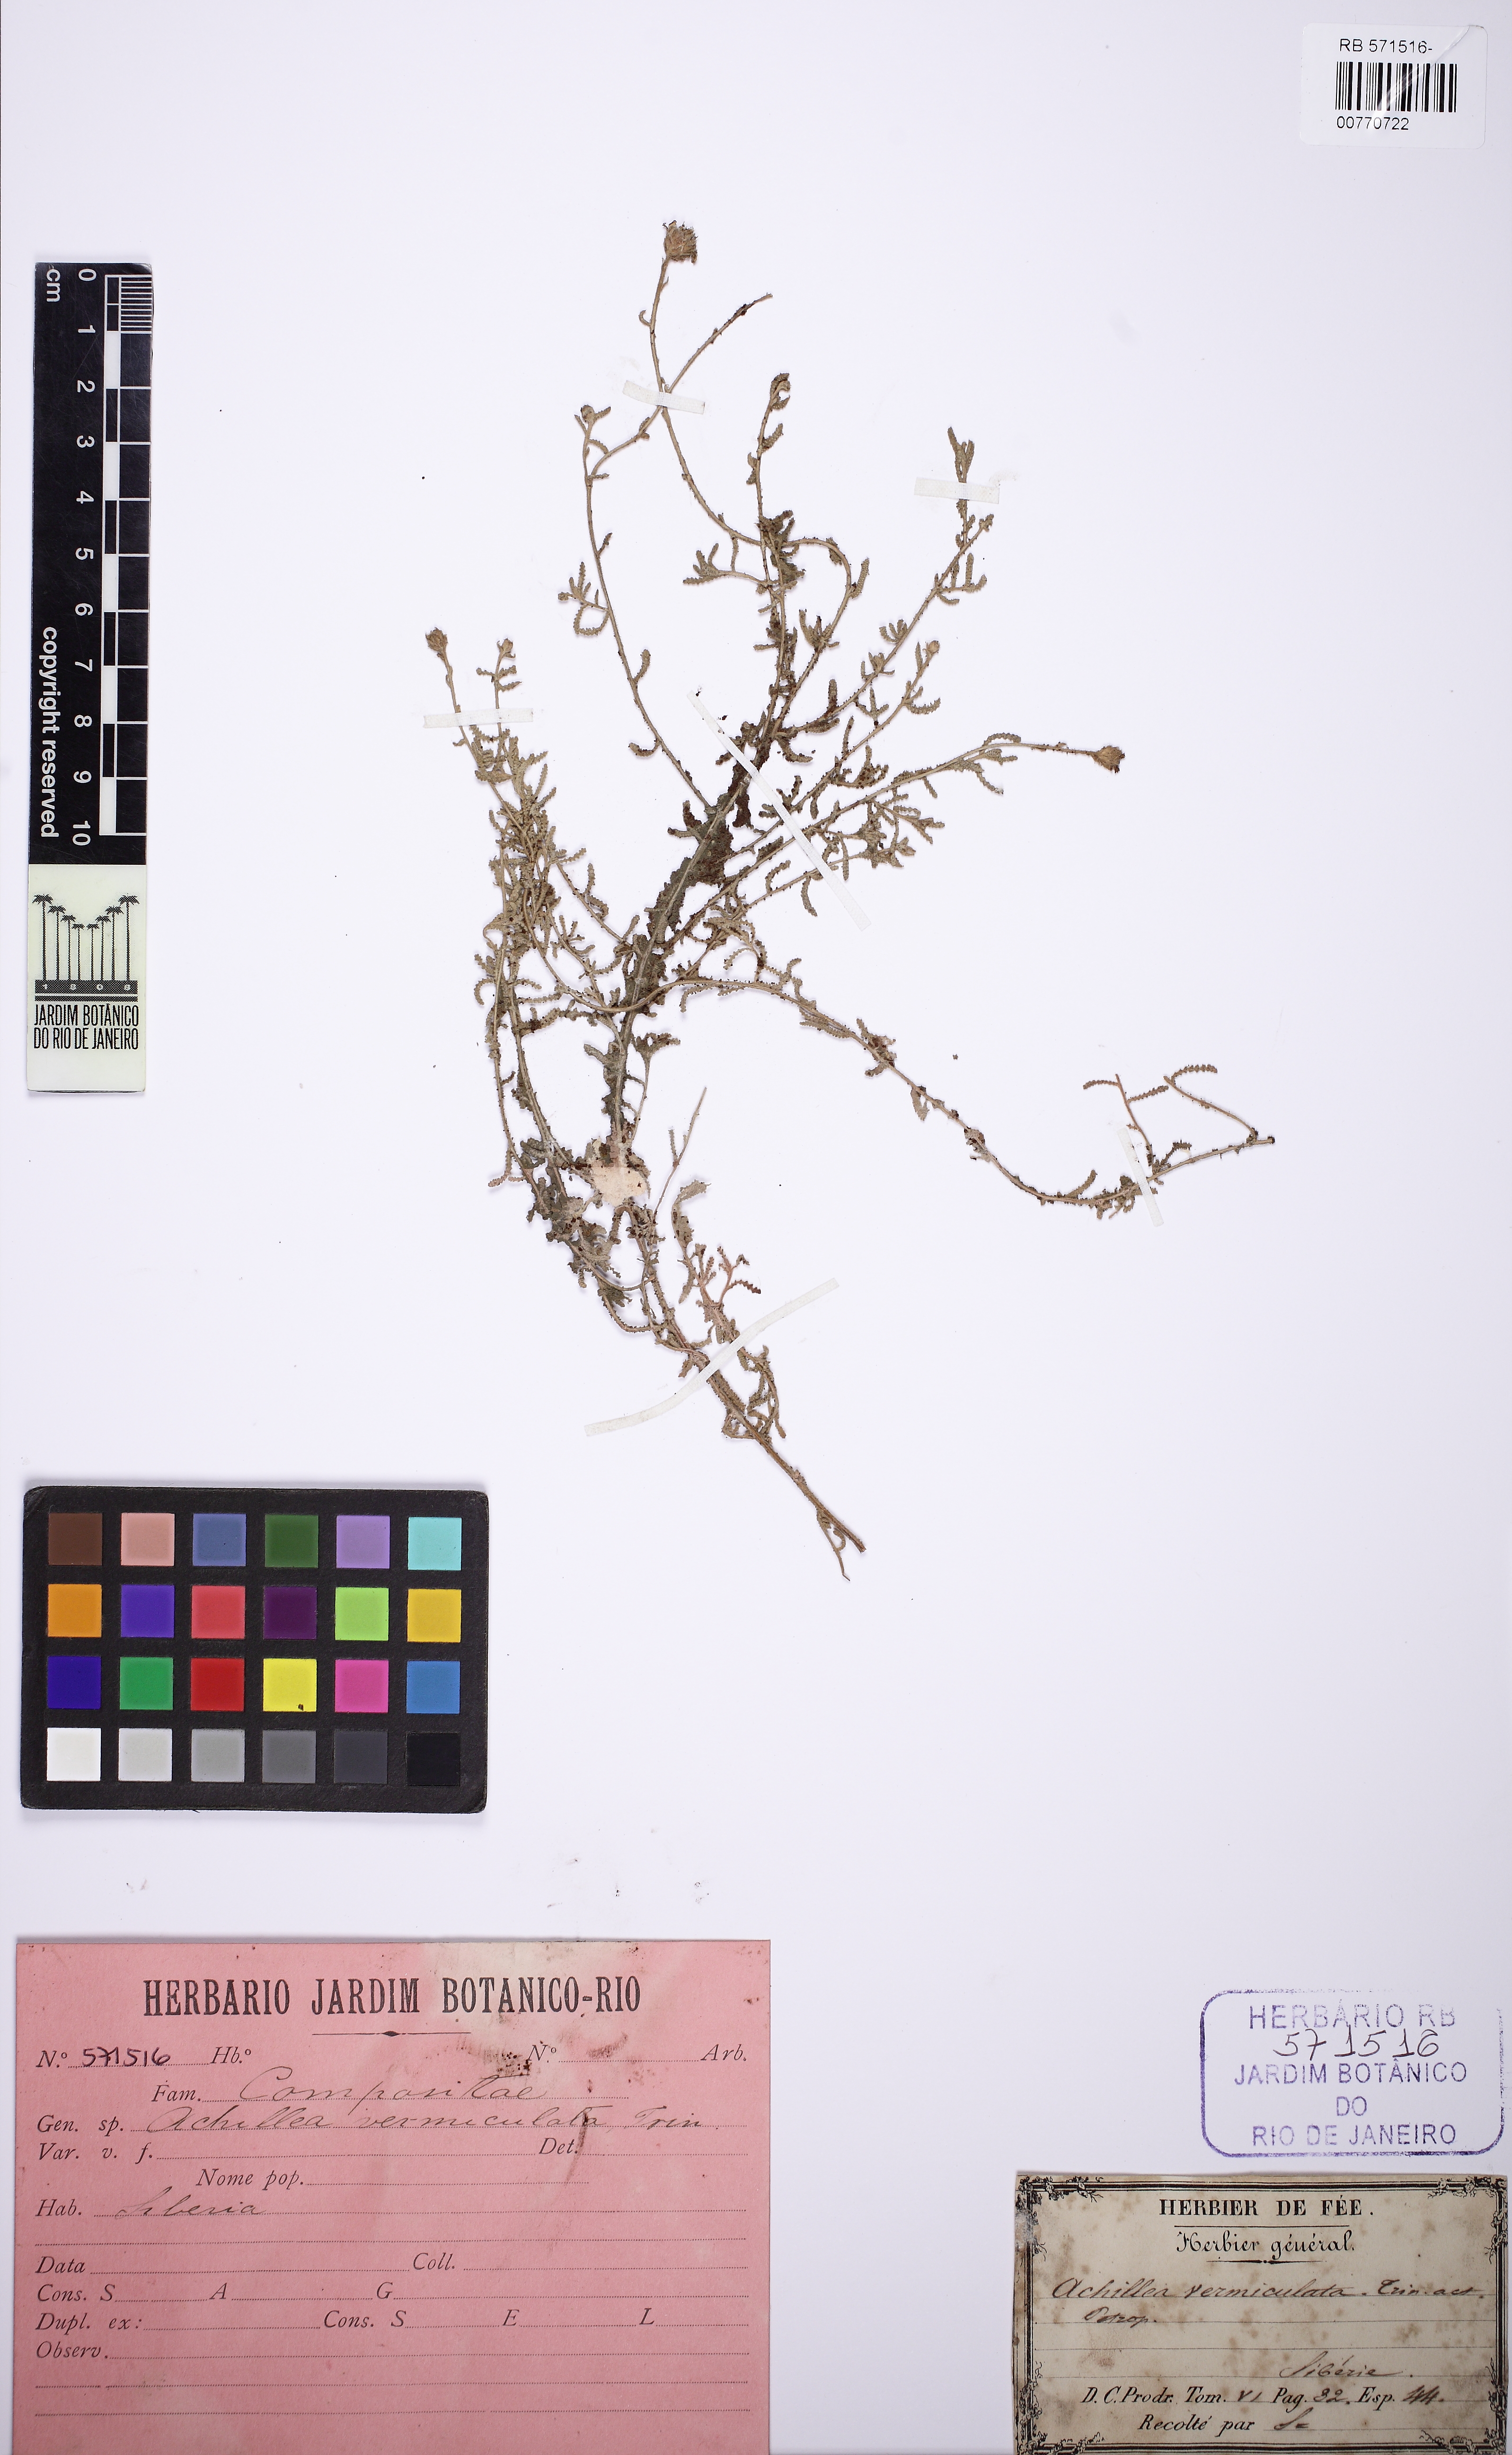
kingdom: Plantae
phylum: Tracheophyta
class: Magnoliopsida
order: Asterales
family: Asteraceae
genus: Achillea
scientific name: Achillea vermicularis
